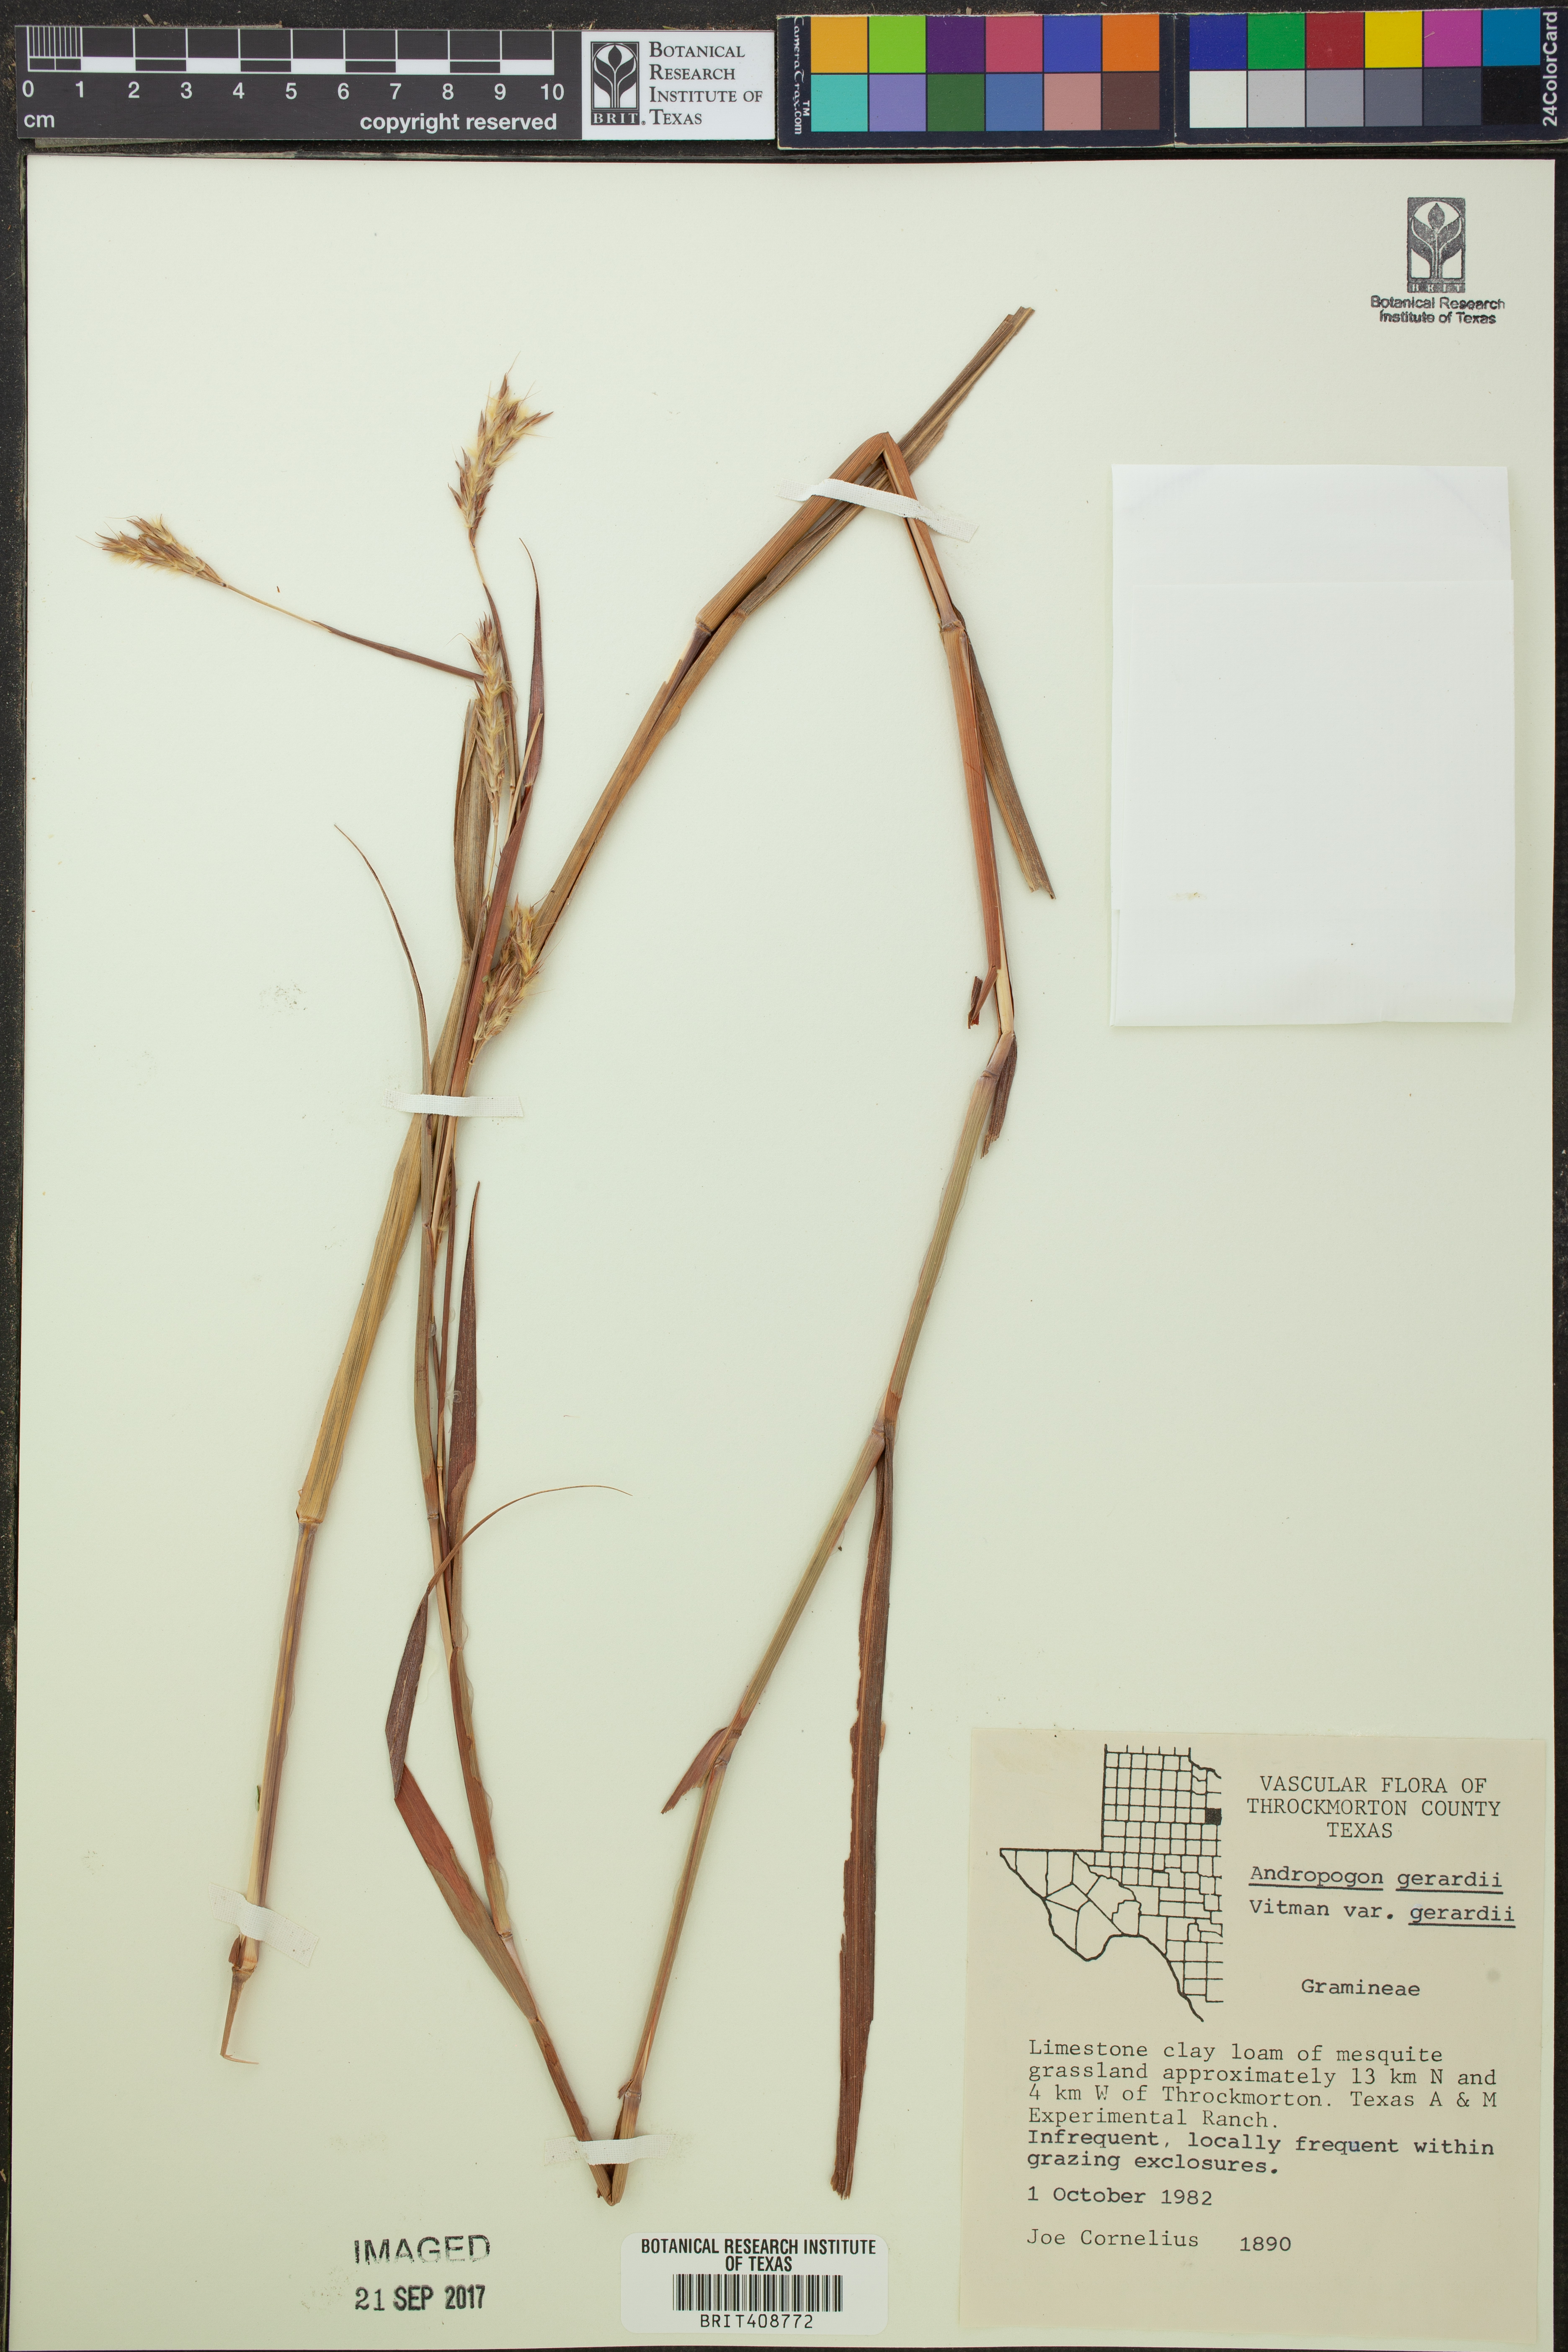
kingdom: Plantae
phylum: Tracheophyta
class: Liliopsida
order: Poales
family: Poaceae
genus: Andropogon
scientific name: Andropogon gerardi
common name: Big bluestem
